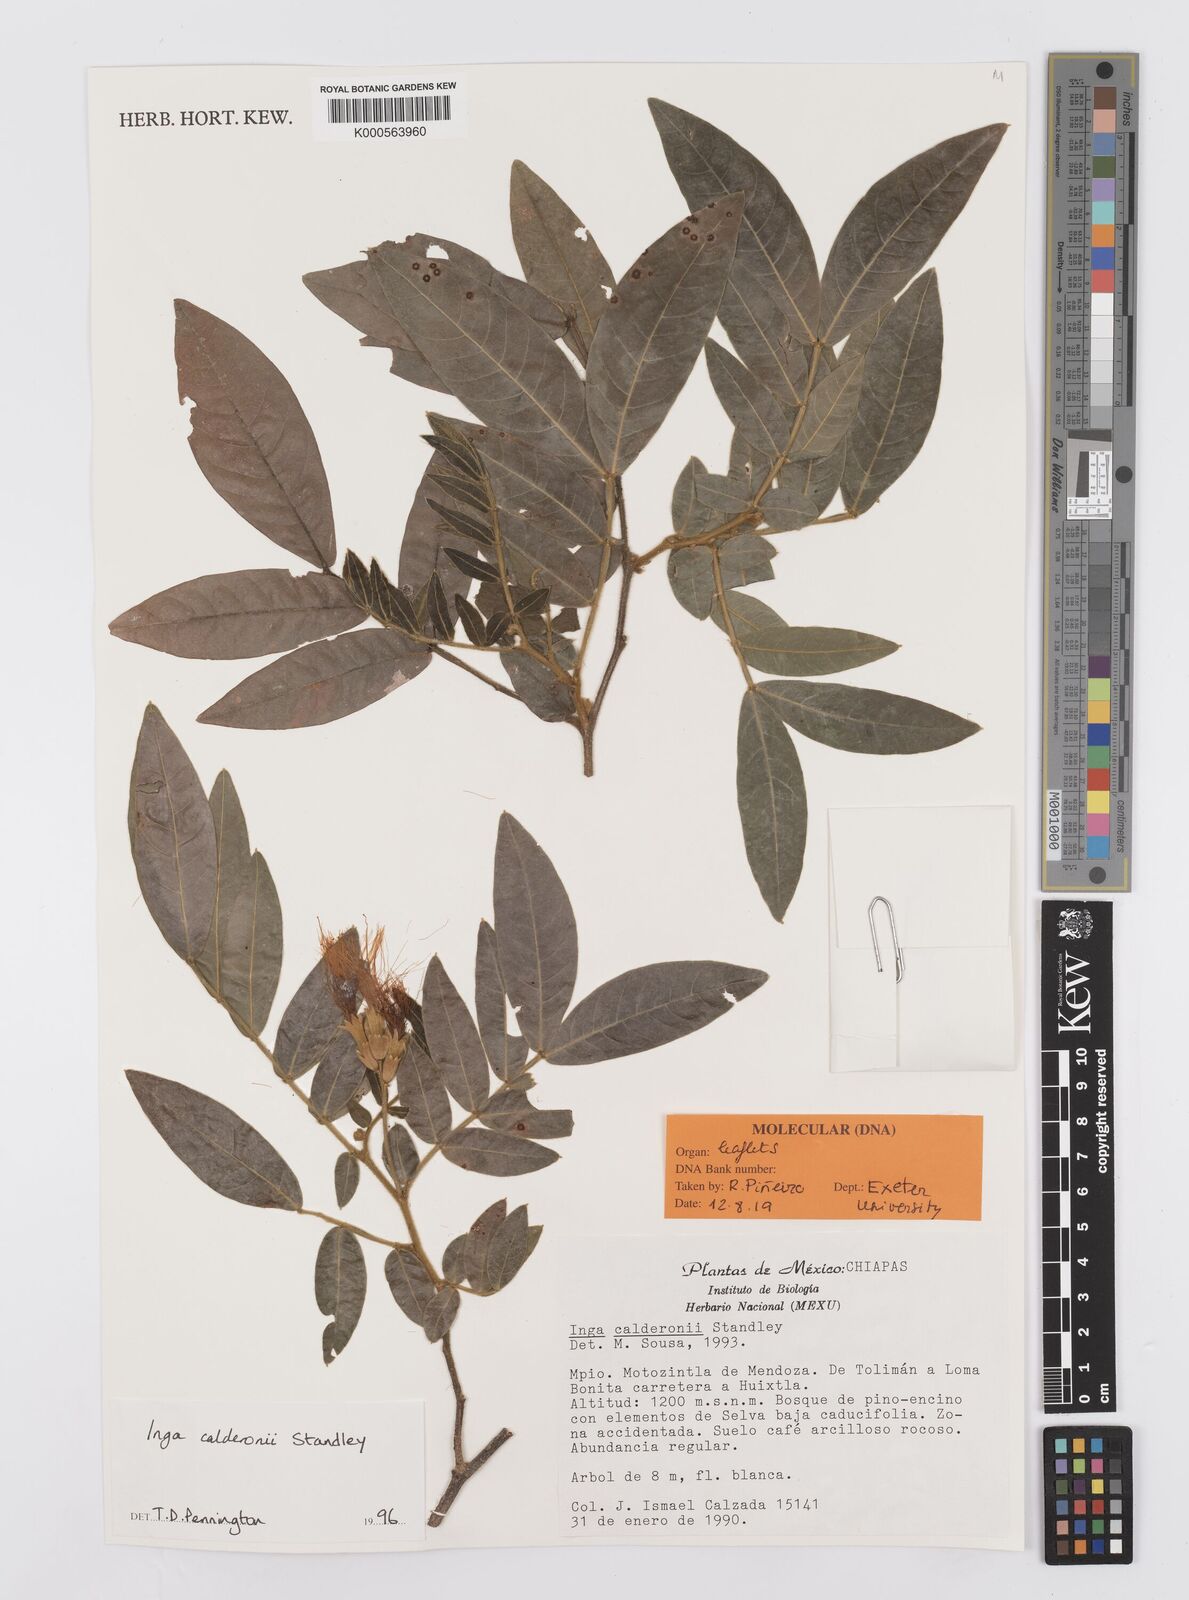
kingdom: Plantae
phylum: Tracheophyta
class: Magnoliopsida
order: Fabales
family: Fabaceae
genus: Inga
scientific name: Inga calderonii
